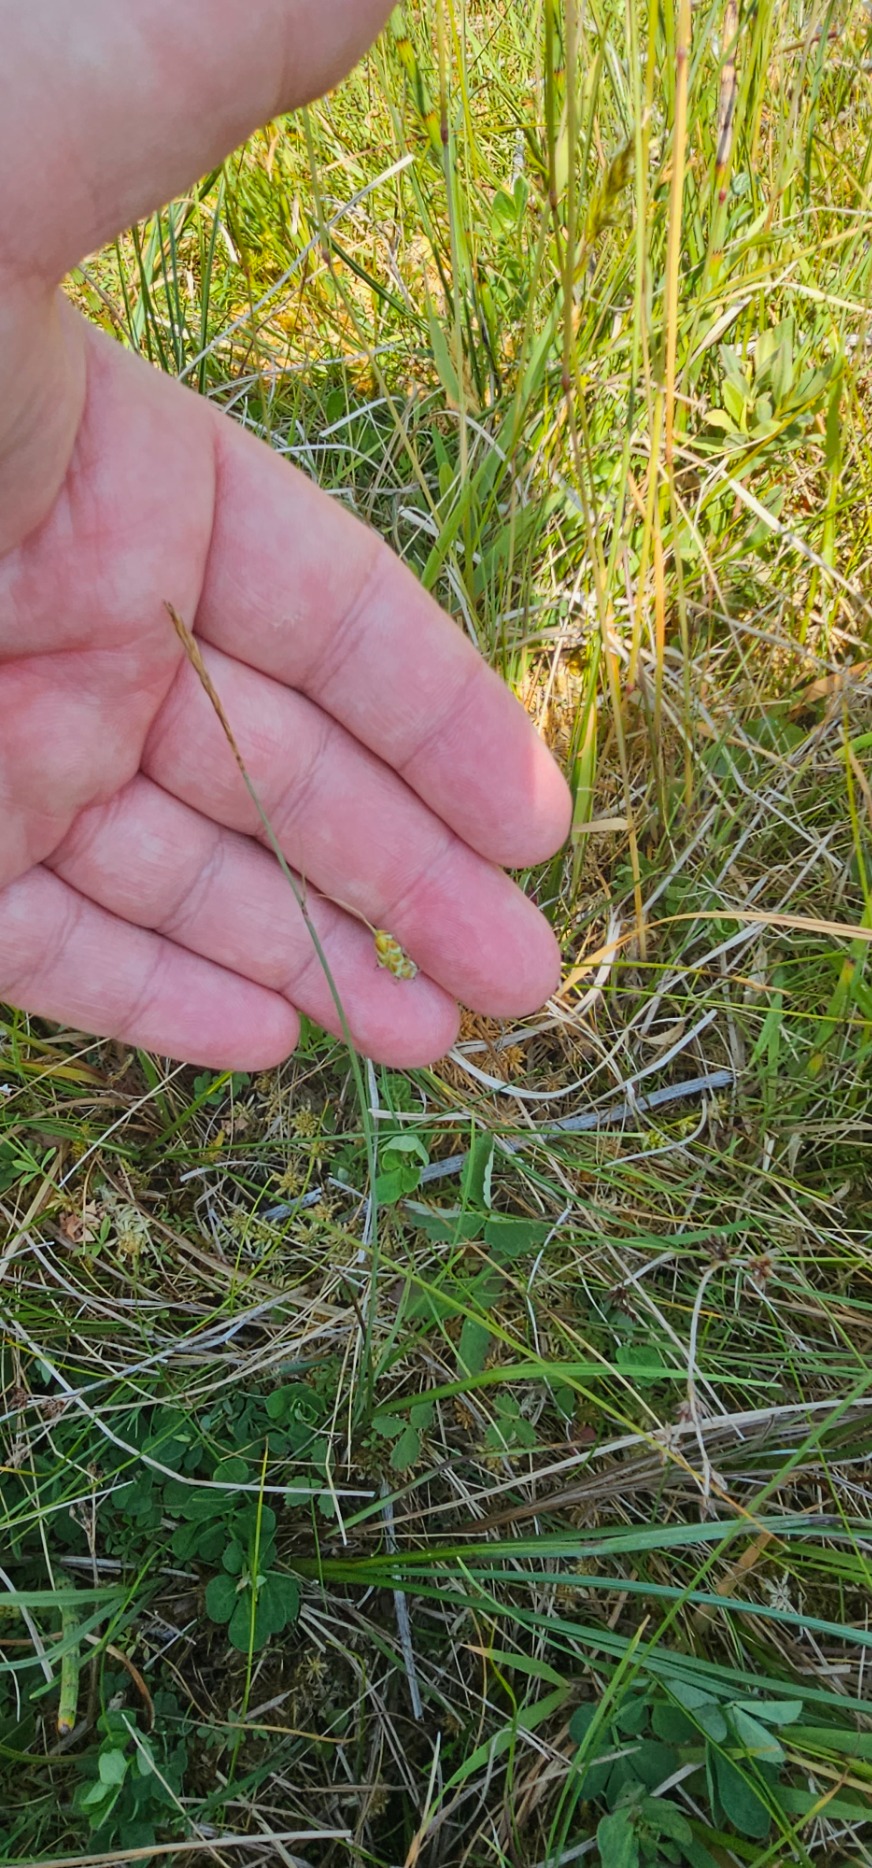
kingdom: Plantae
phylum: Tracheophyta
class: Liliopsida
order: Poales
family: Cyperaceae
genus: Carex
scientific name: Carex limosa
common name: Dynd-star
